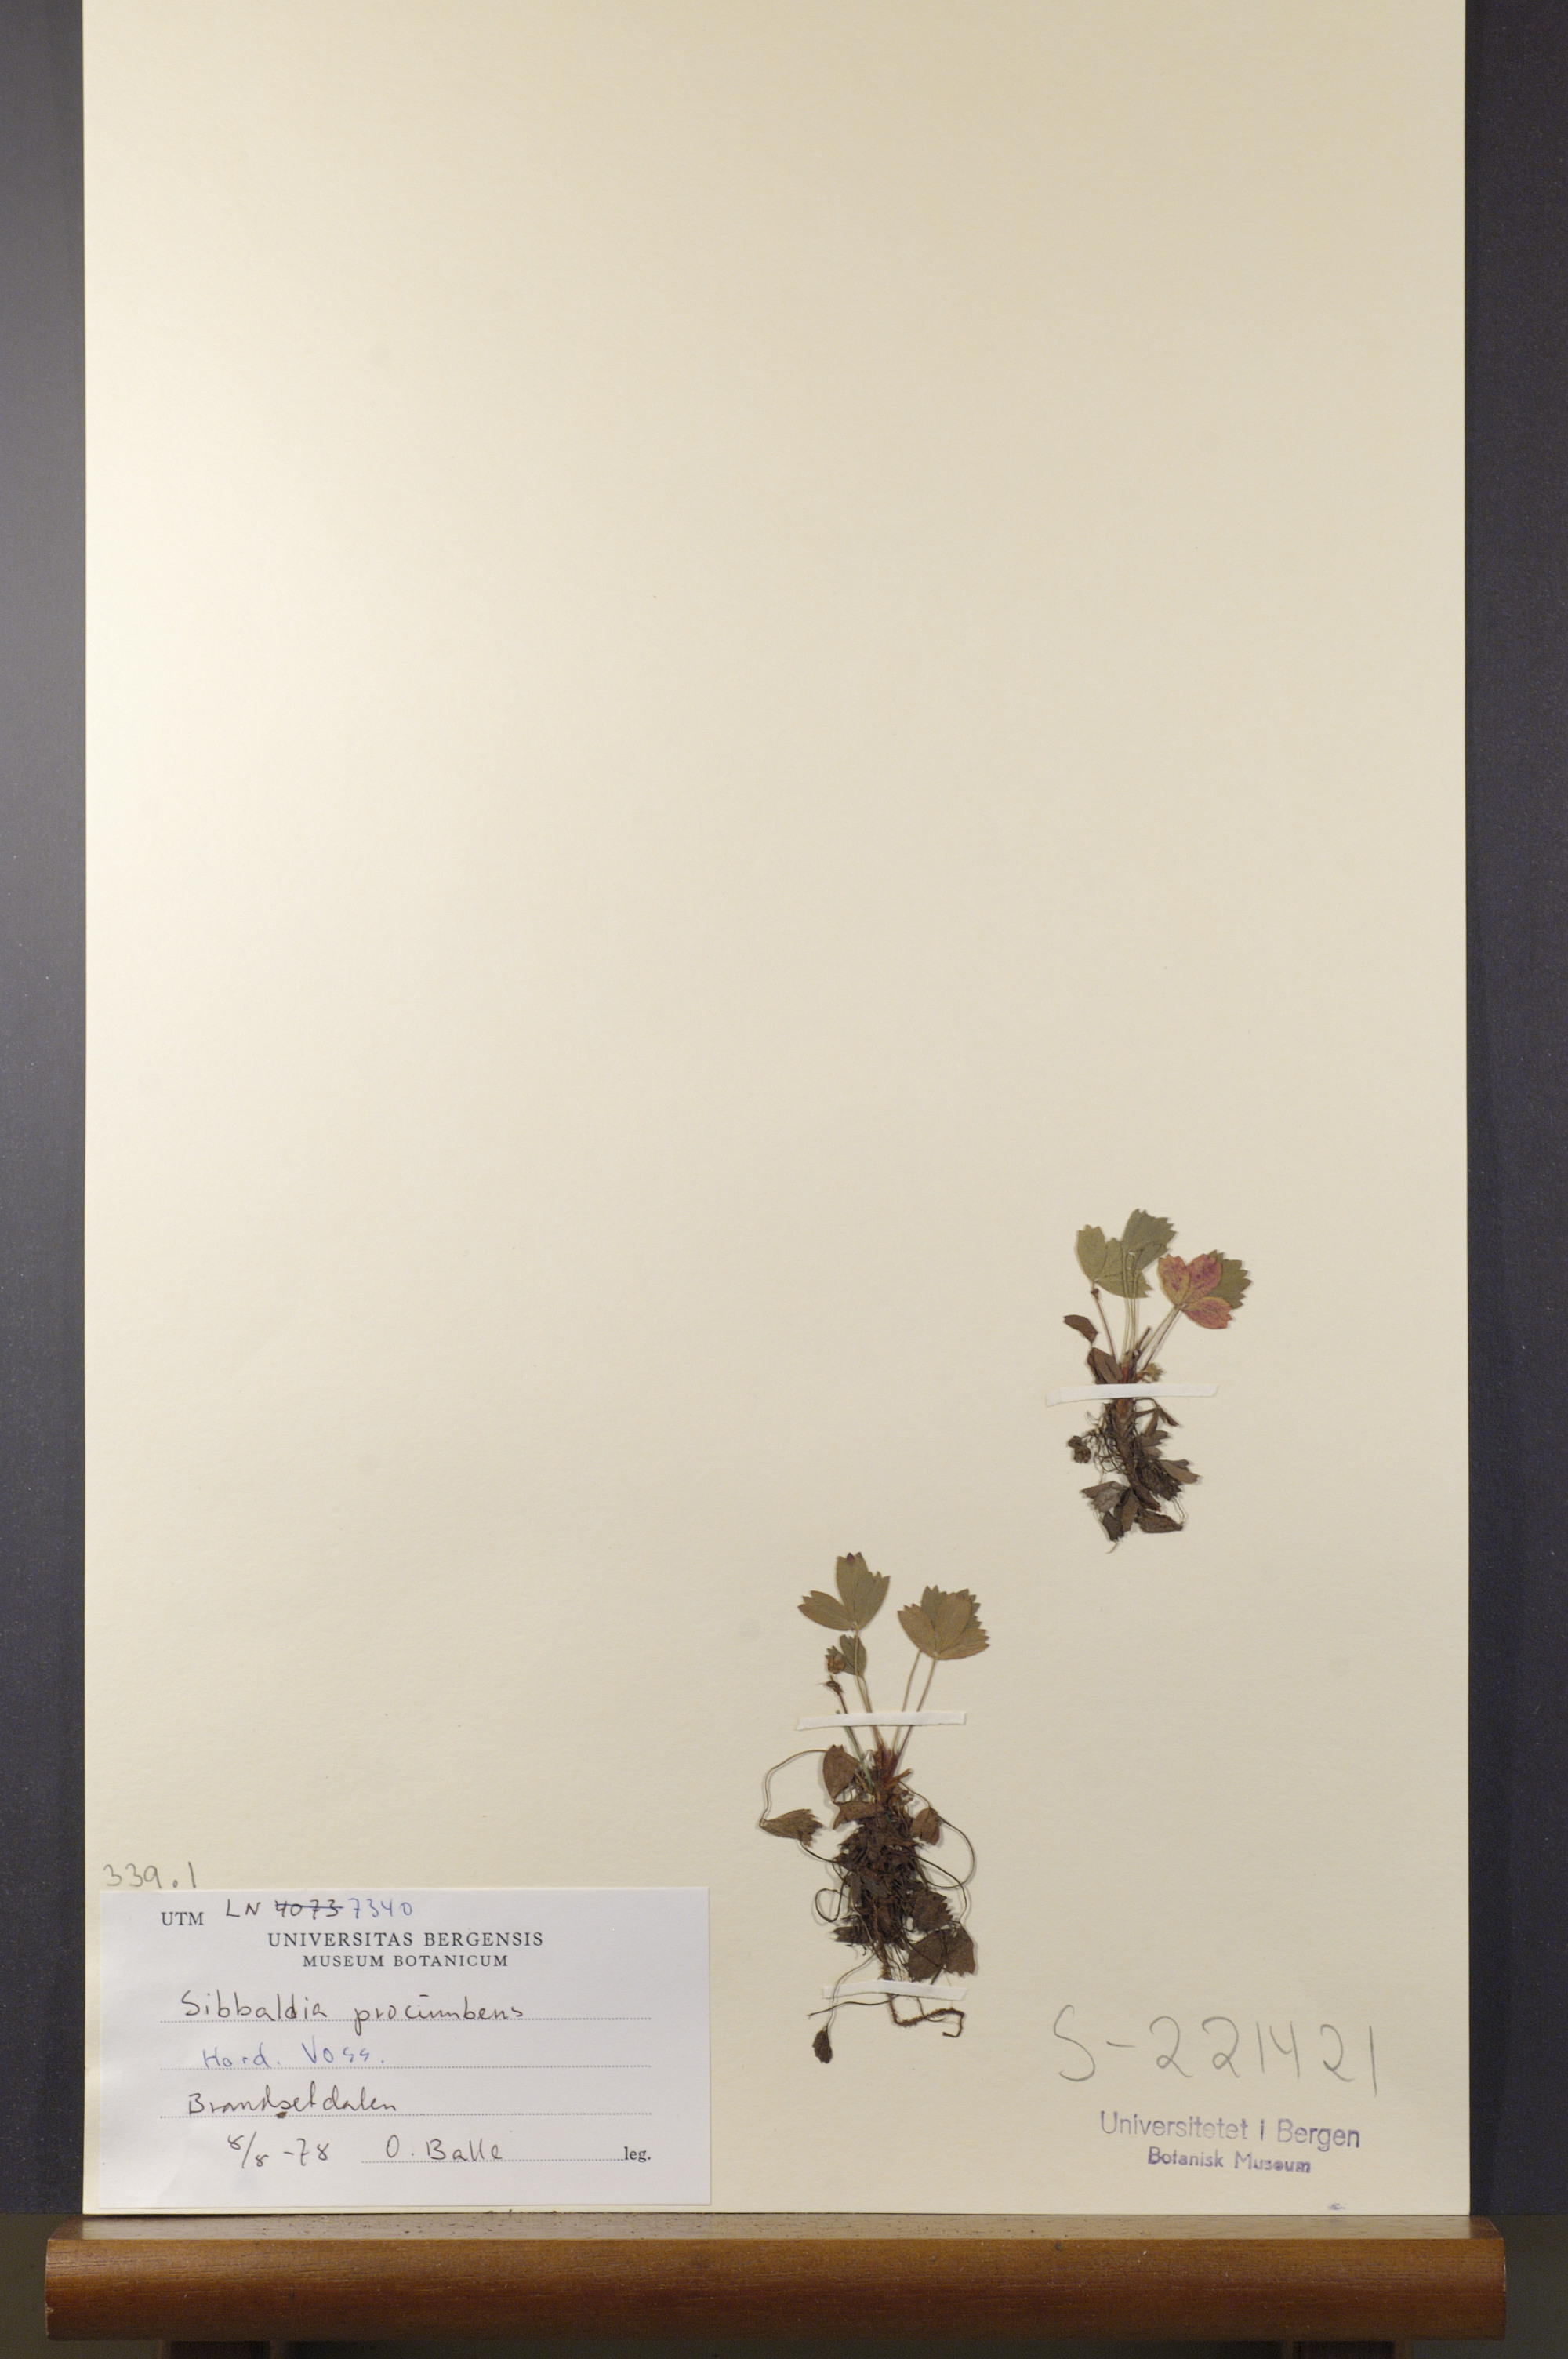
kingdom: Plantae
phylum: Tracheophyta
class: Magnoliopsida
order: Rosales
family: Rosaceae
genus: Sibbaldia
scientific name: Sibbaldia procumbens
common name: Creeping sibbaldia
